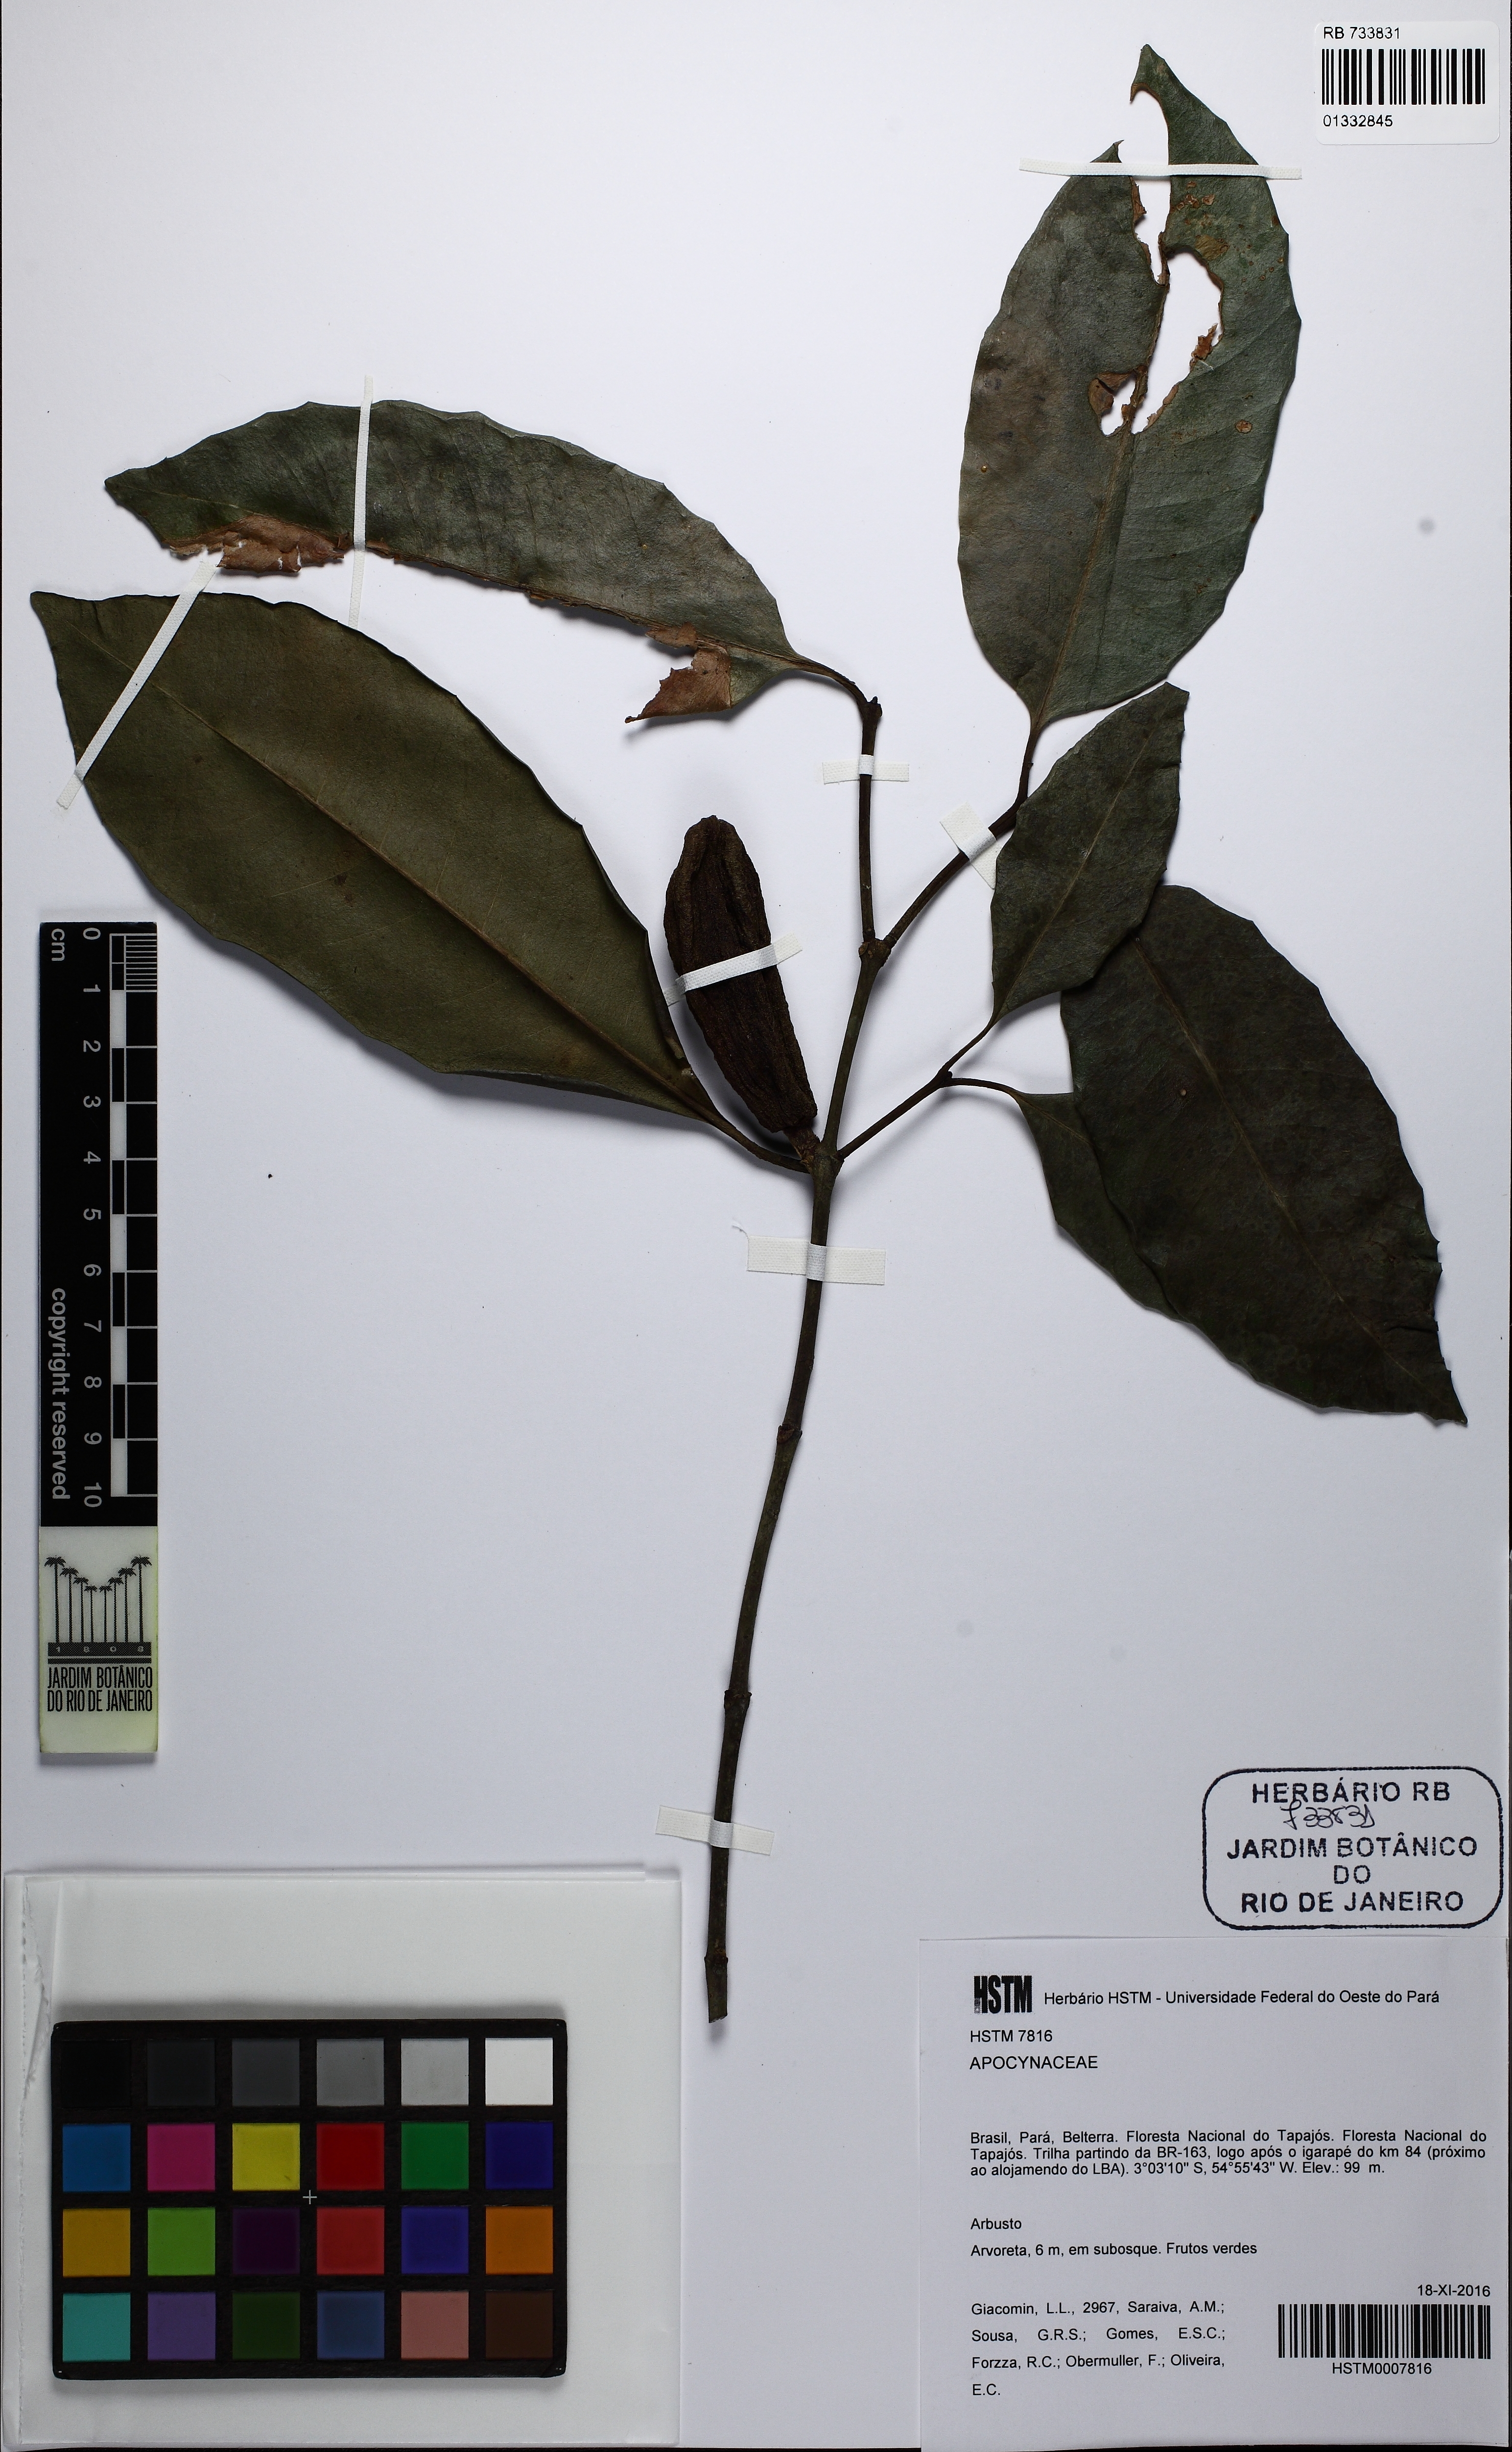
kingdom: Plantae
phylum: Tracheophyta
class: Magnoliopsida
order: Gentianales
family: Apocynaceae
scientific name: Apocynaceae
